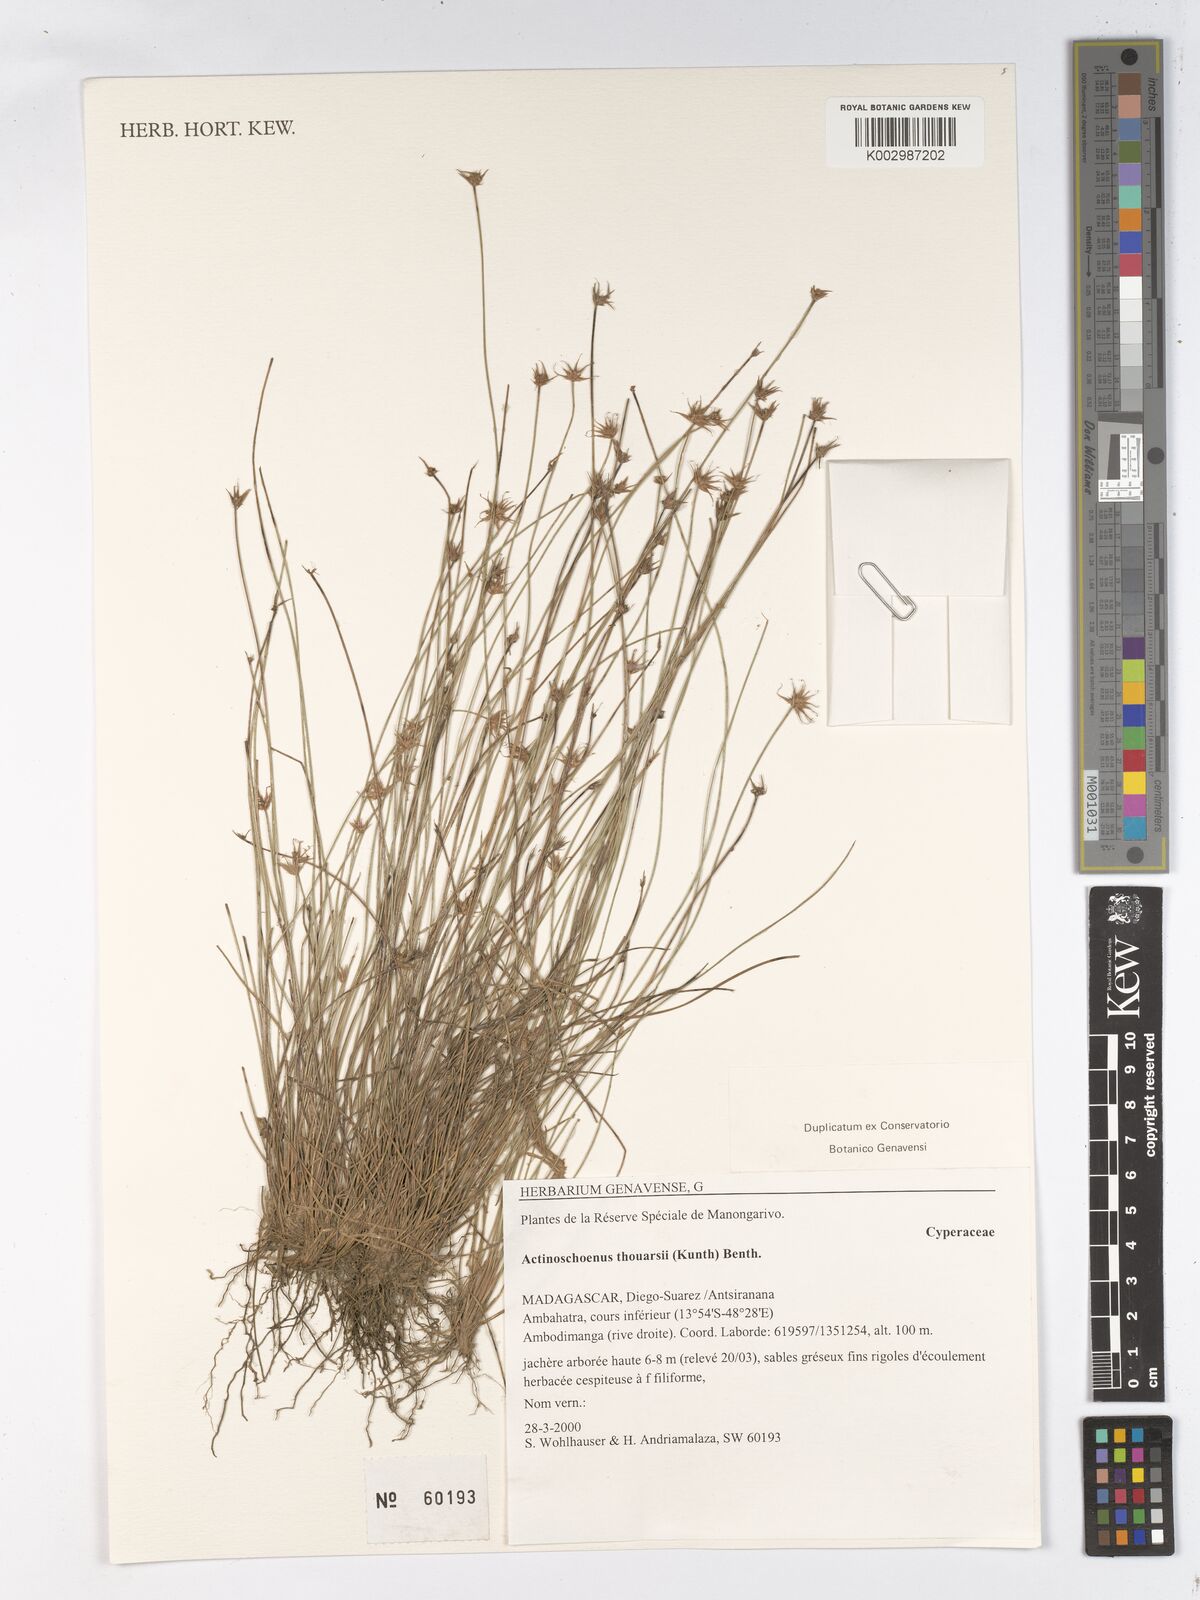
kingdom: Plantae
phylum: Tracheophyta
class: Liliopsida
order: Poales
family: Cyperaceae
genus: Actinoschoenus
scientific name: Actinoschoenus aphyllus
